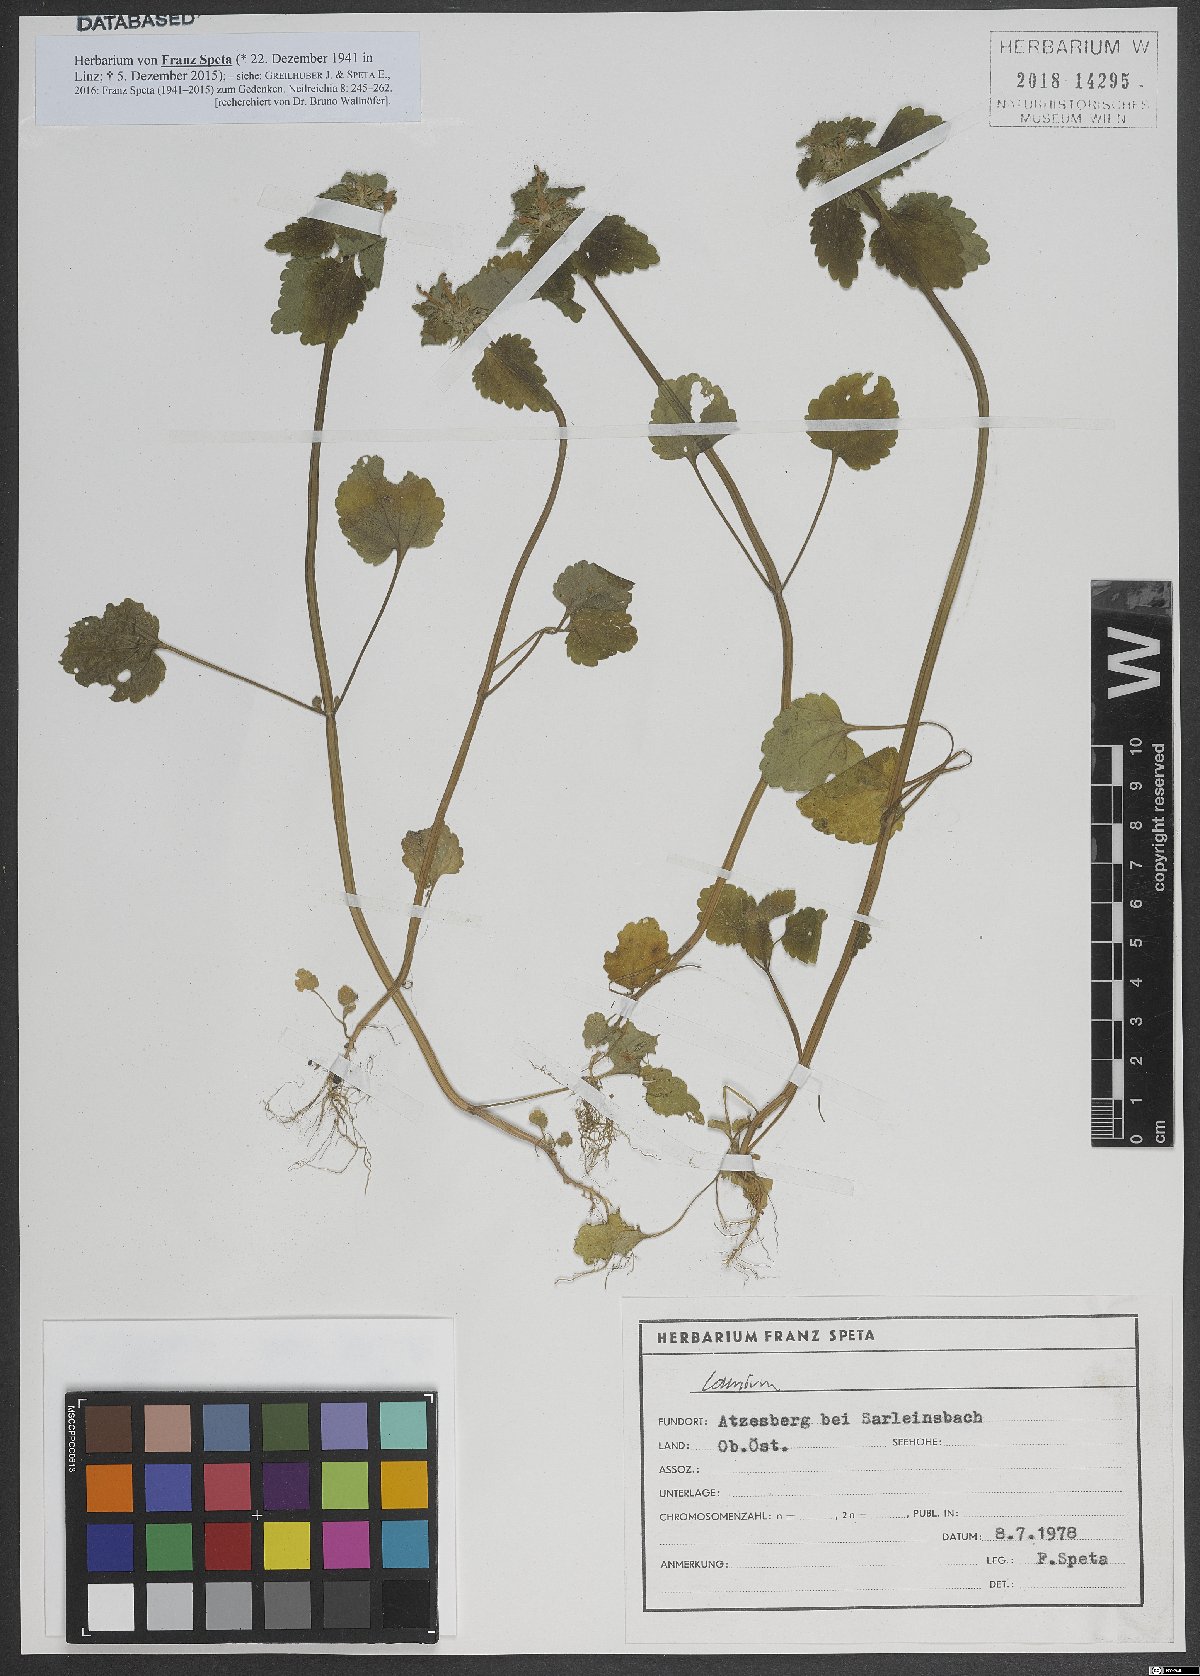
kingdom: Plantae
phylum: Tracheophyta
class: Magnoliopsida
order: Lamiales
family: Lamiaceae
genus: Lamium
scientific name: Lamium
